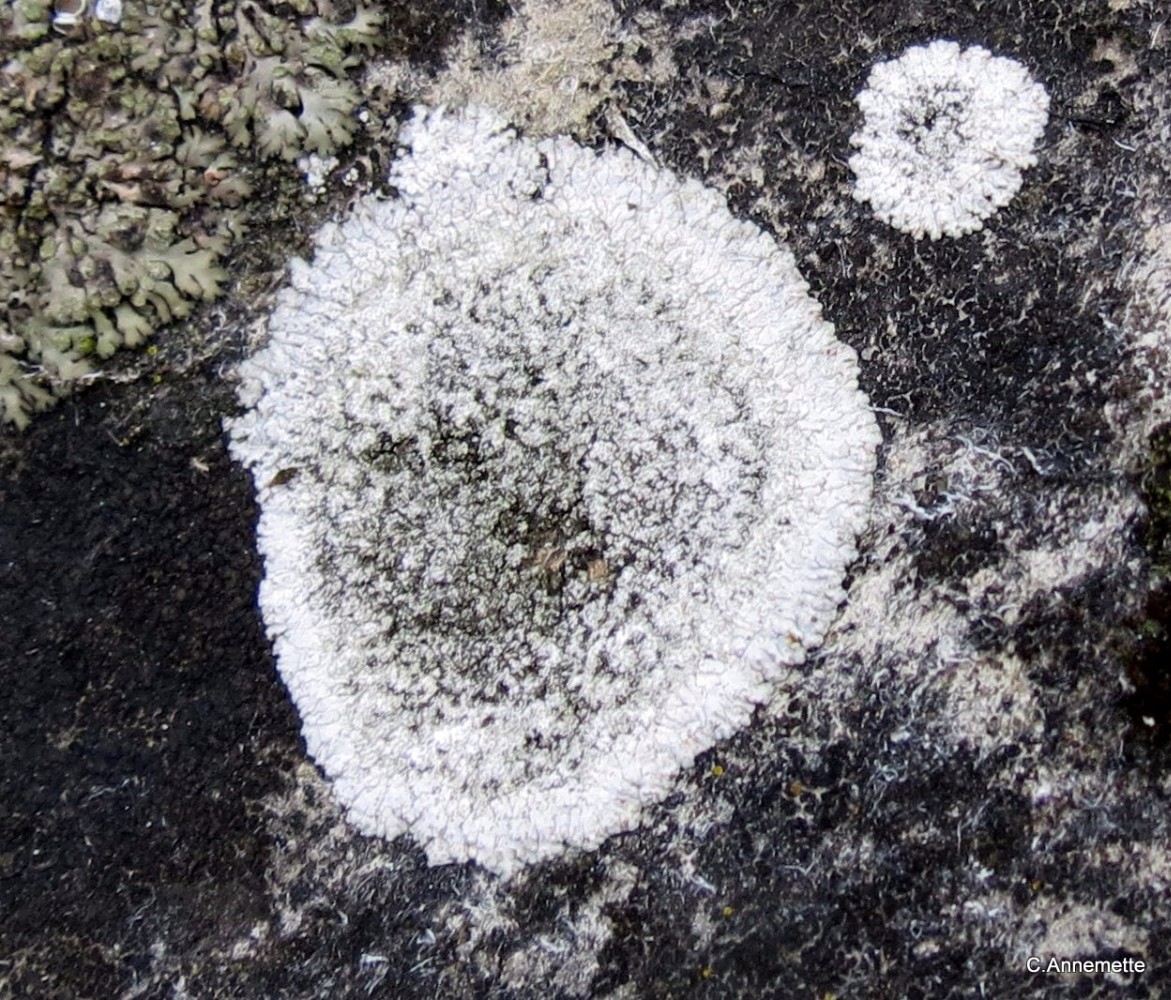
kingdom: Fungi
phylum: Ascomycota
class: Lecanoromycetes
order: Teloschistales
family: Teloschistaceae
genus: Kuettlingeria
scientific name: Kuettlingeria teicholyta
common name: grå orangelav
